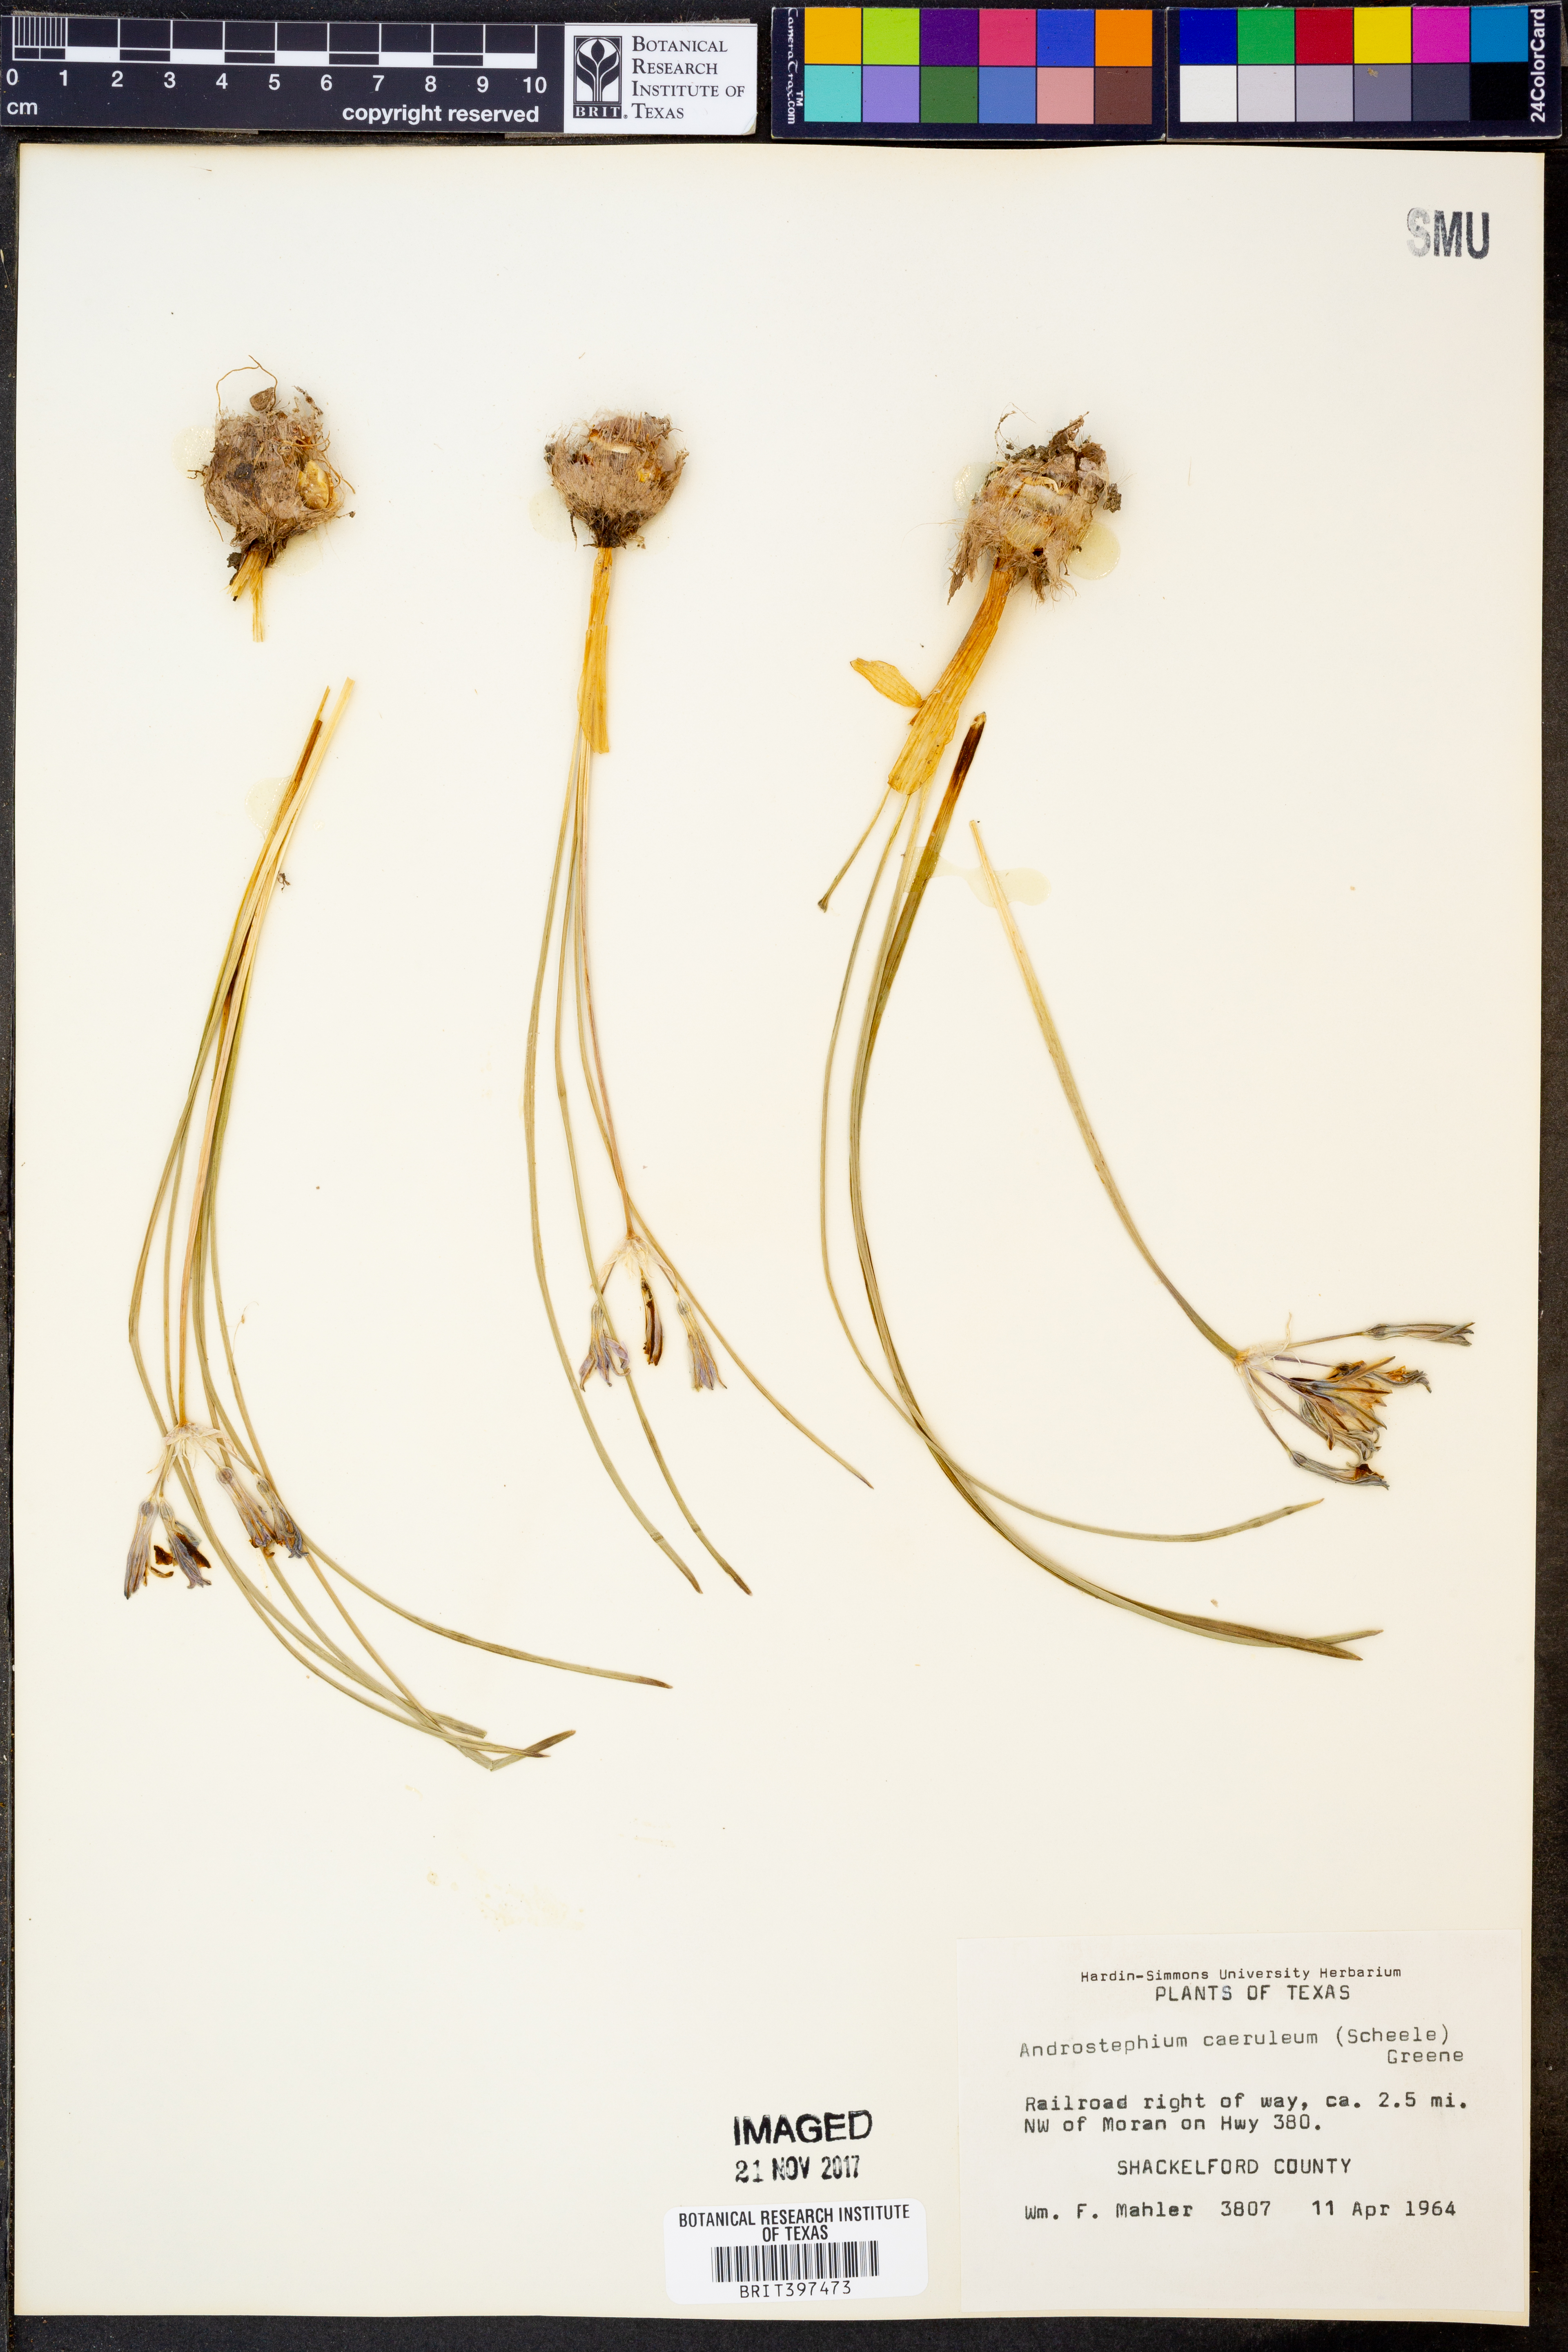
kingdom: Plantae
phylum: Tracheophyta
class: Liliopsida
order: Asparagales
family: Asparagaceae
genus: Androstephium
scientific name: Androstephium caeruleum
